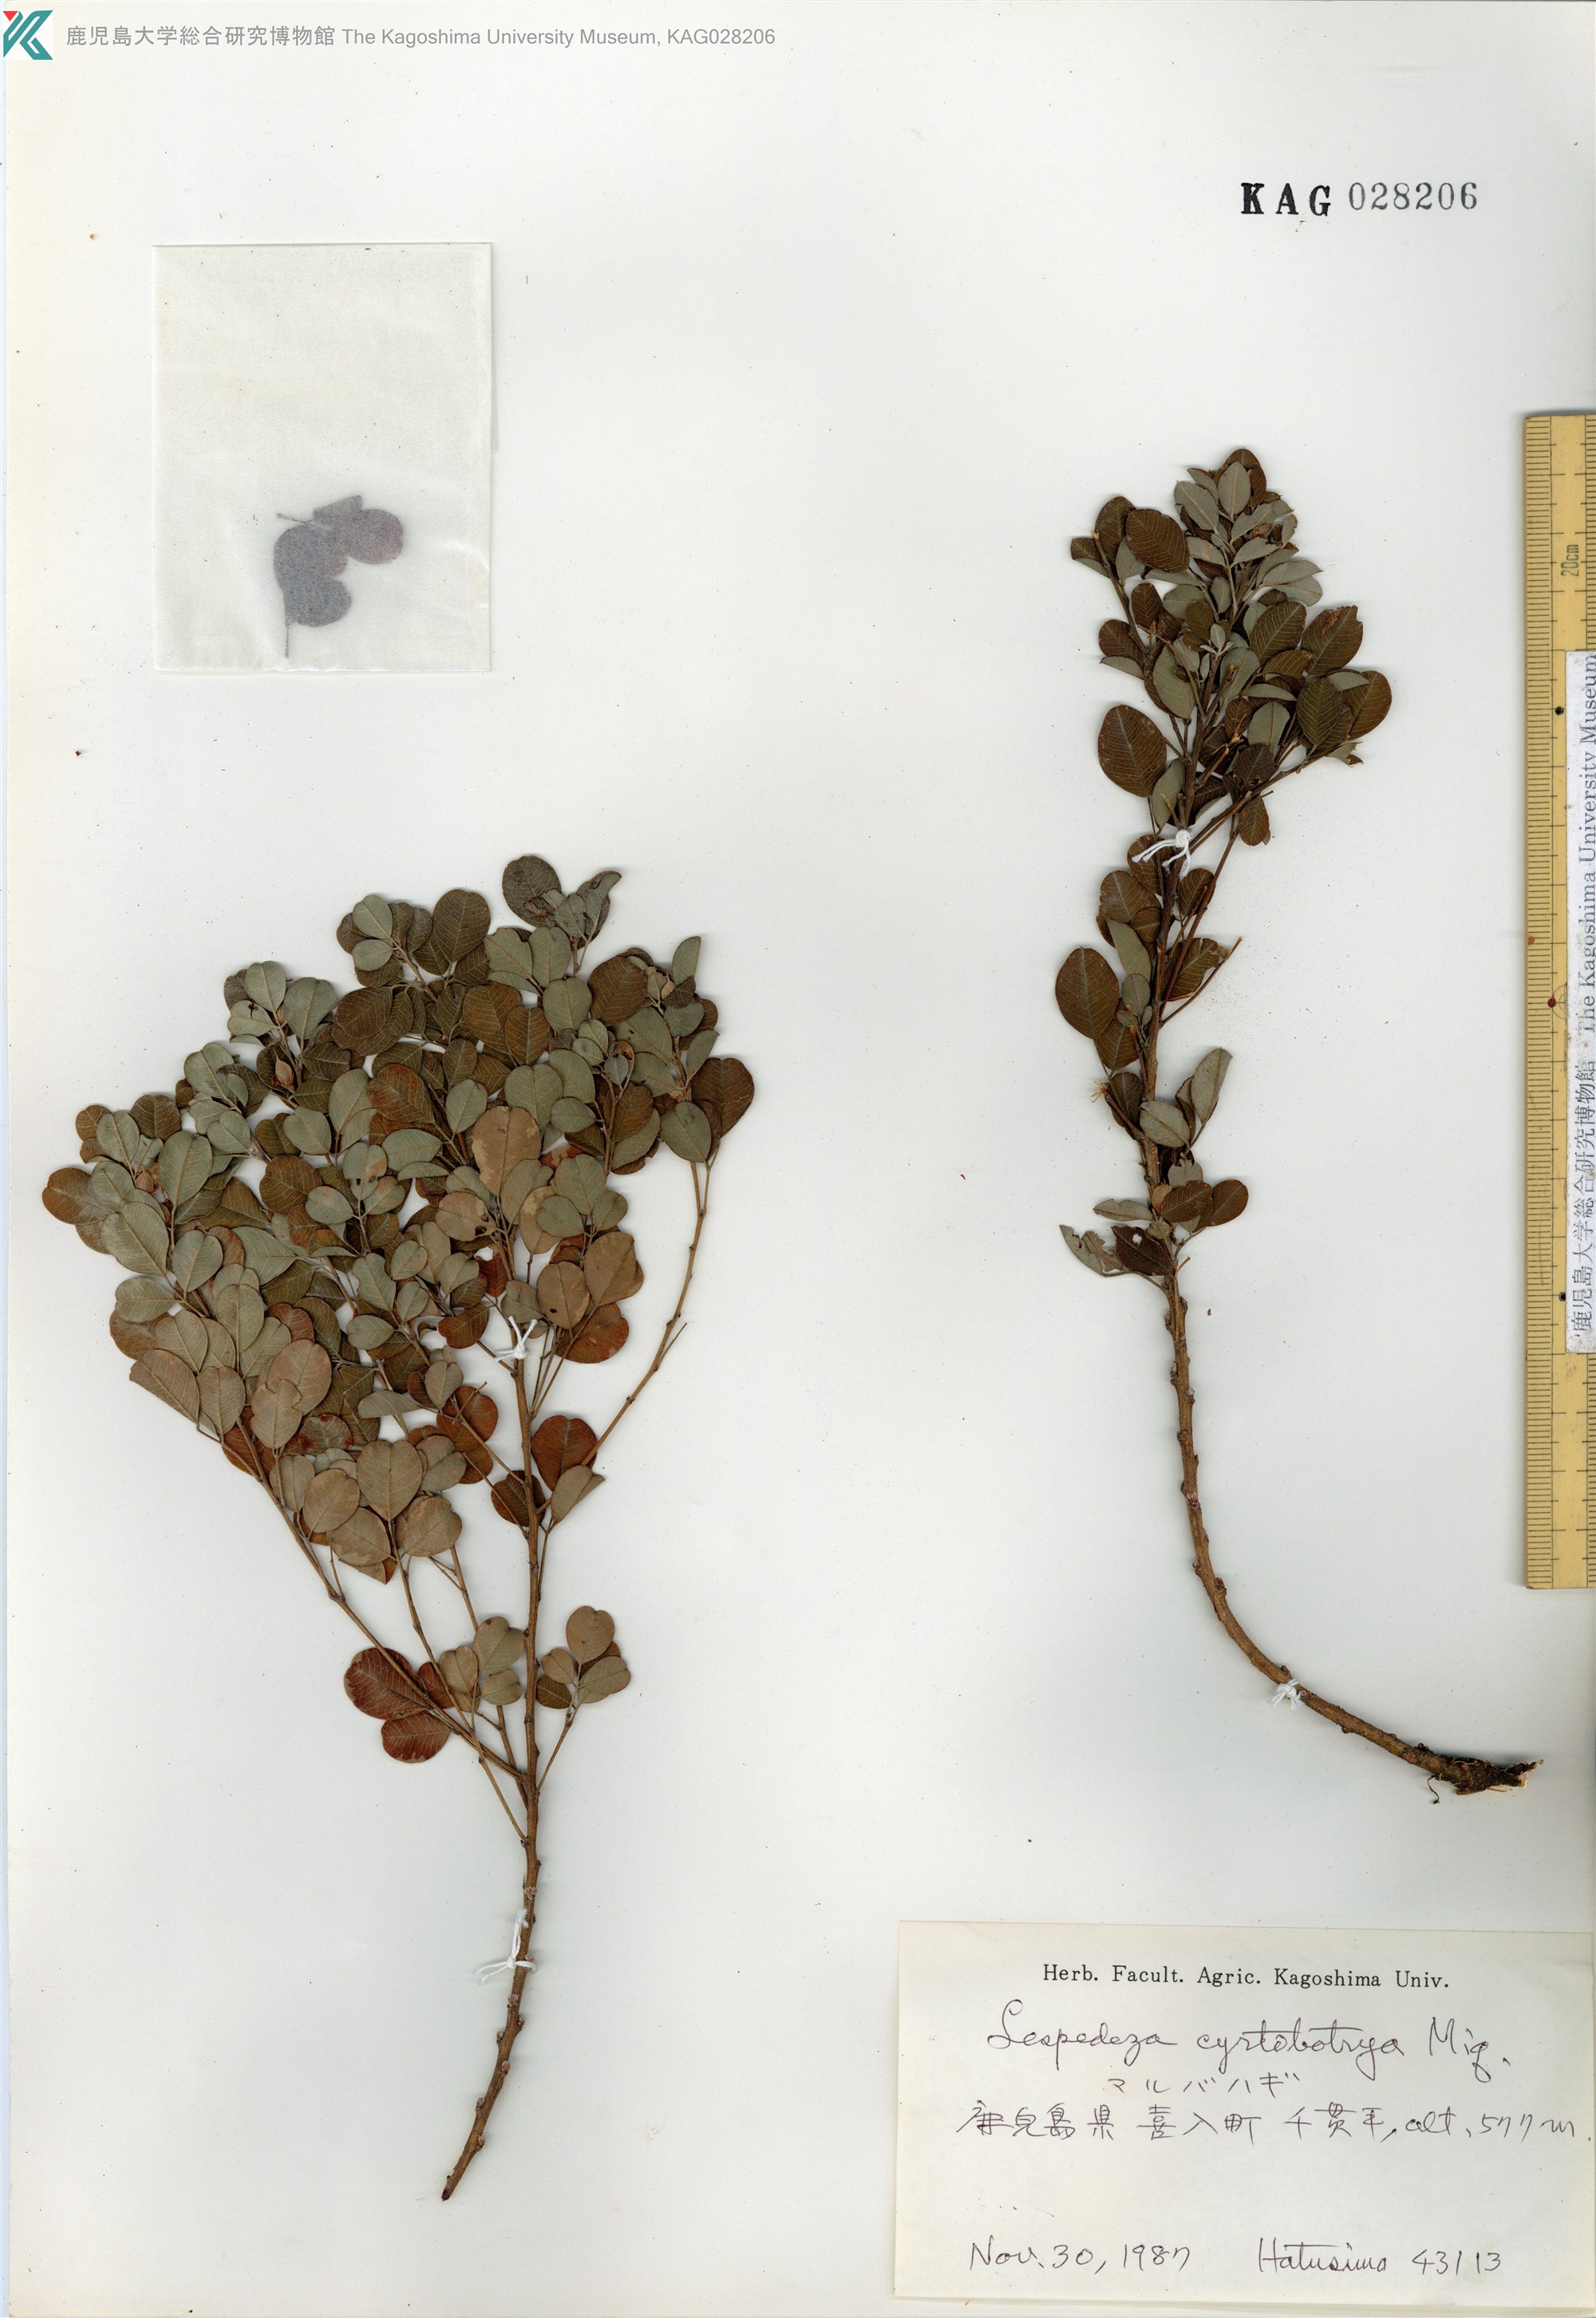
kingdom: Plantae
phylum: Tracheophyta
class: Magnoliopsida
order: Fabales
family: Fabaceae
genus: Lespedeza
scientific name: Lespedeza cyrtobotrya
